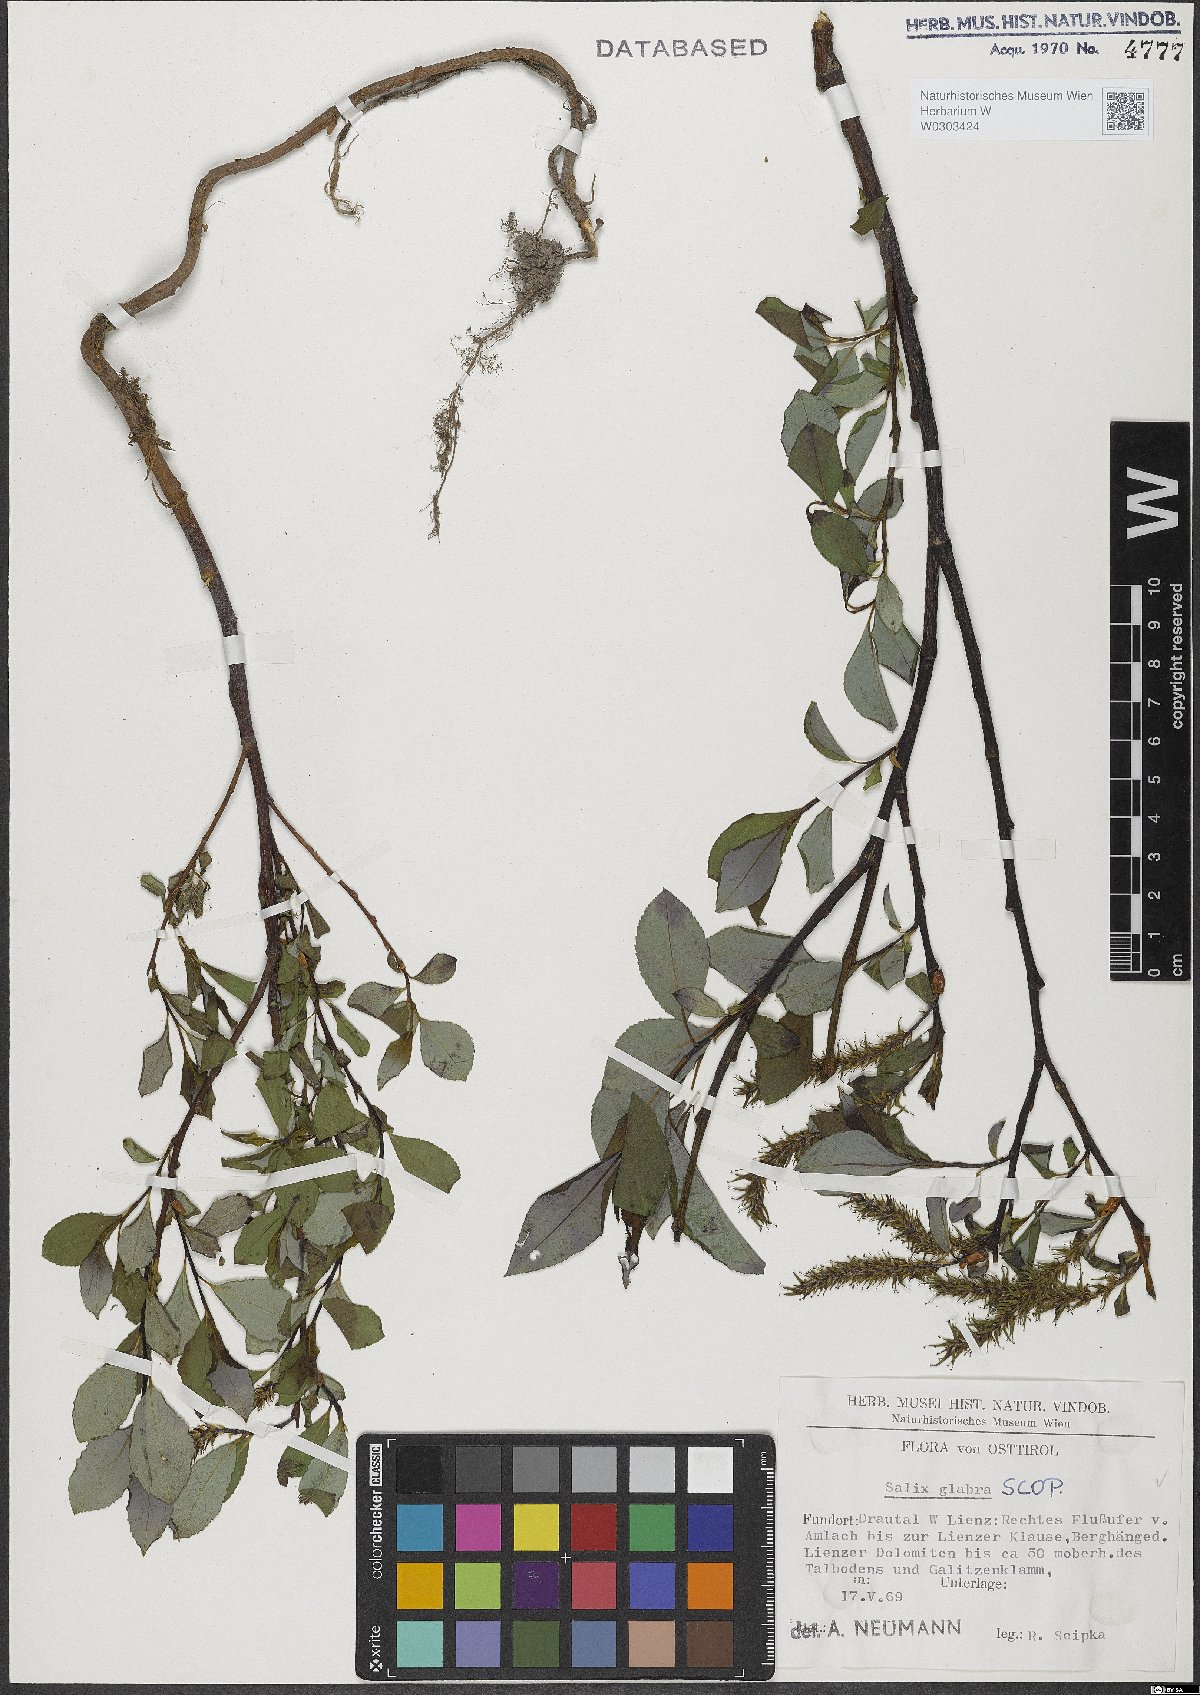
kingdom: Plantae
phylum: Tracheophyta
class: Magnoliopsida
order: Malpighiales
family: Salicaceae
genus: Salix
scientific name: Salix glabra
